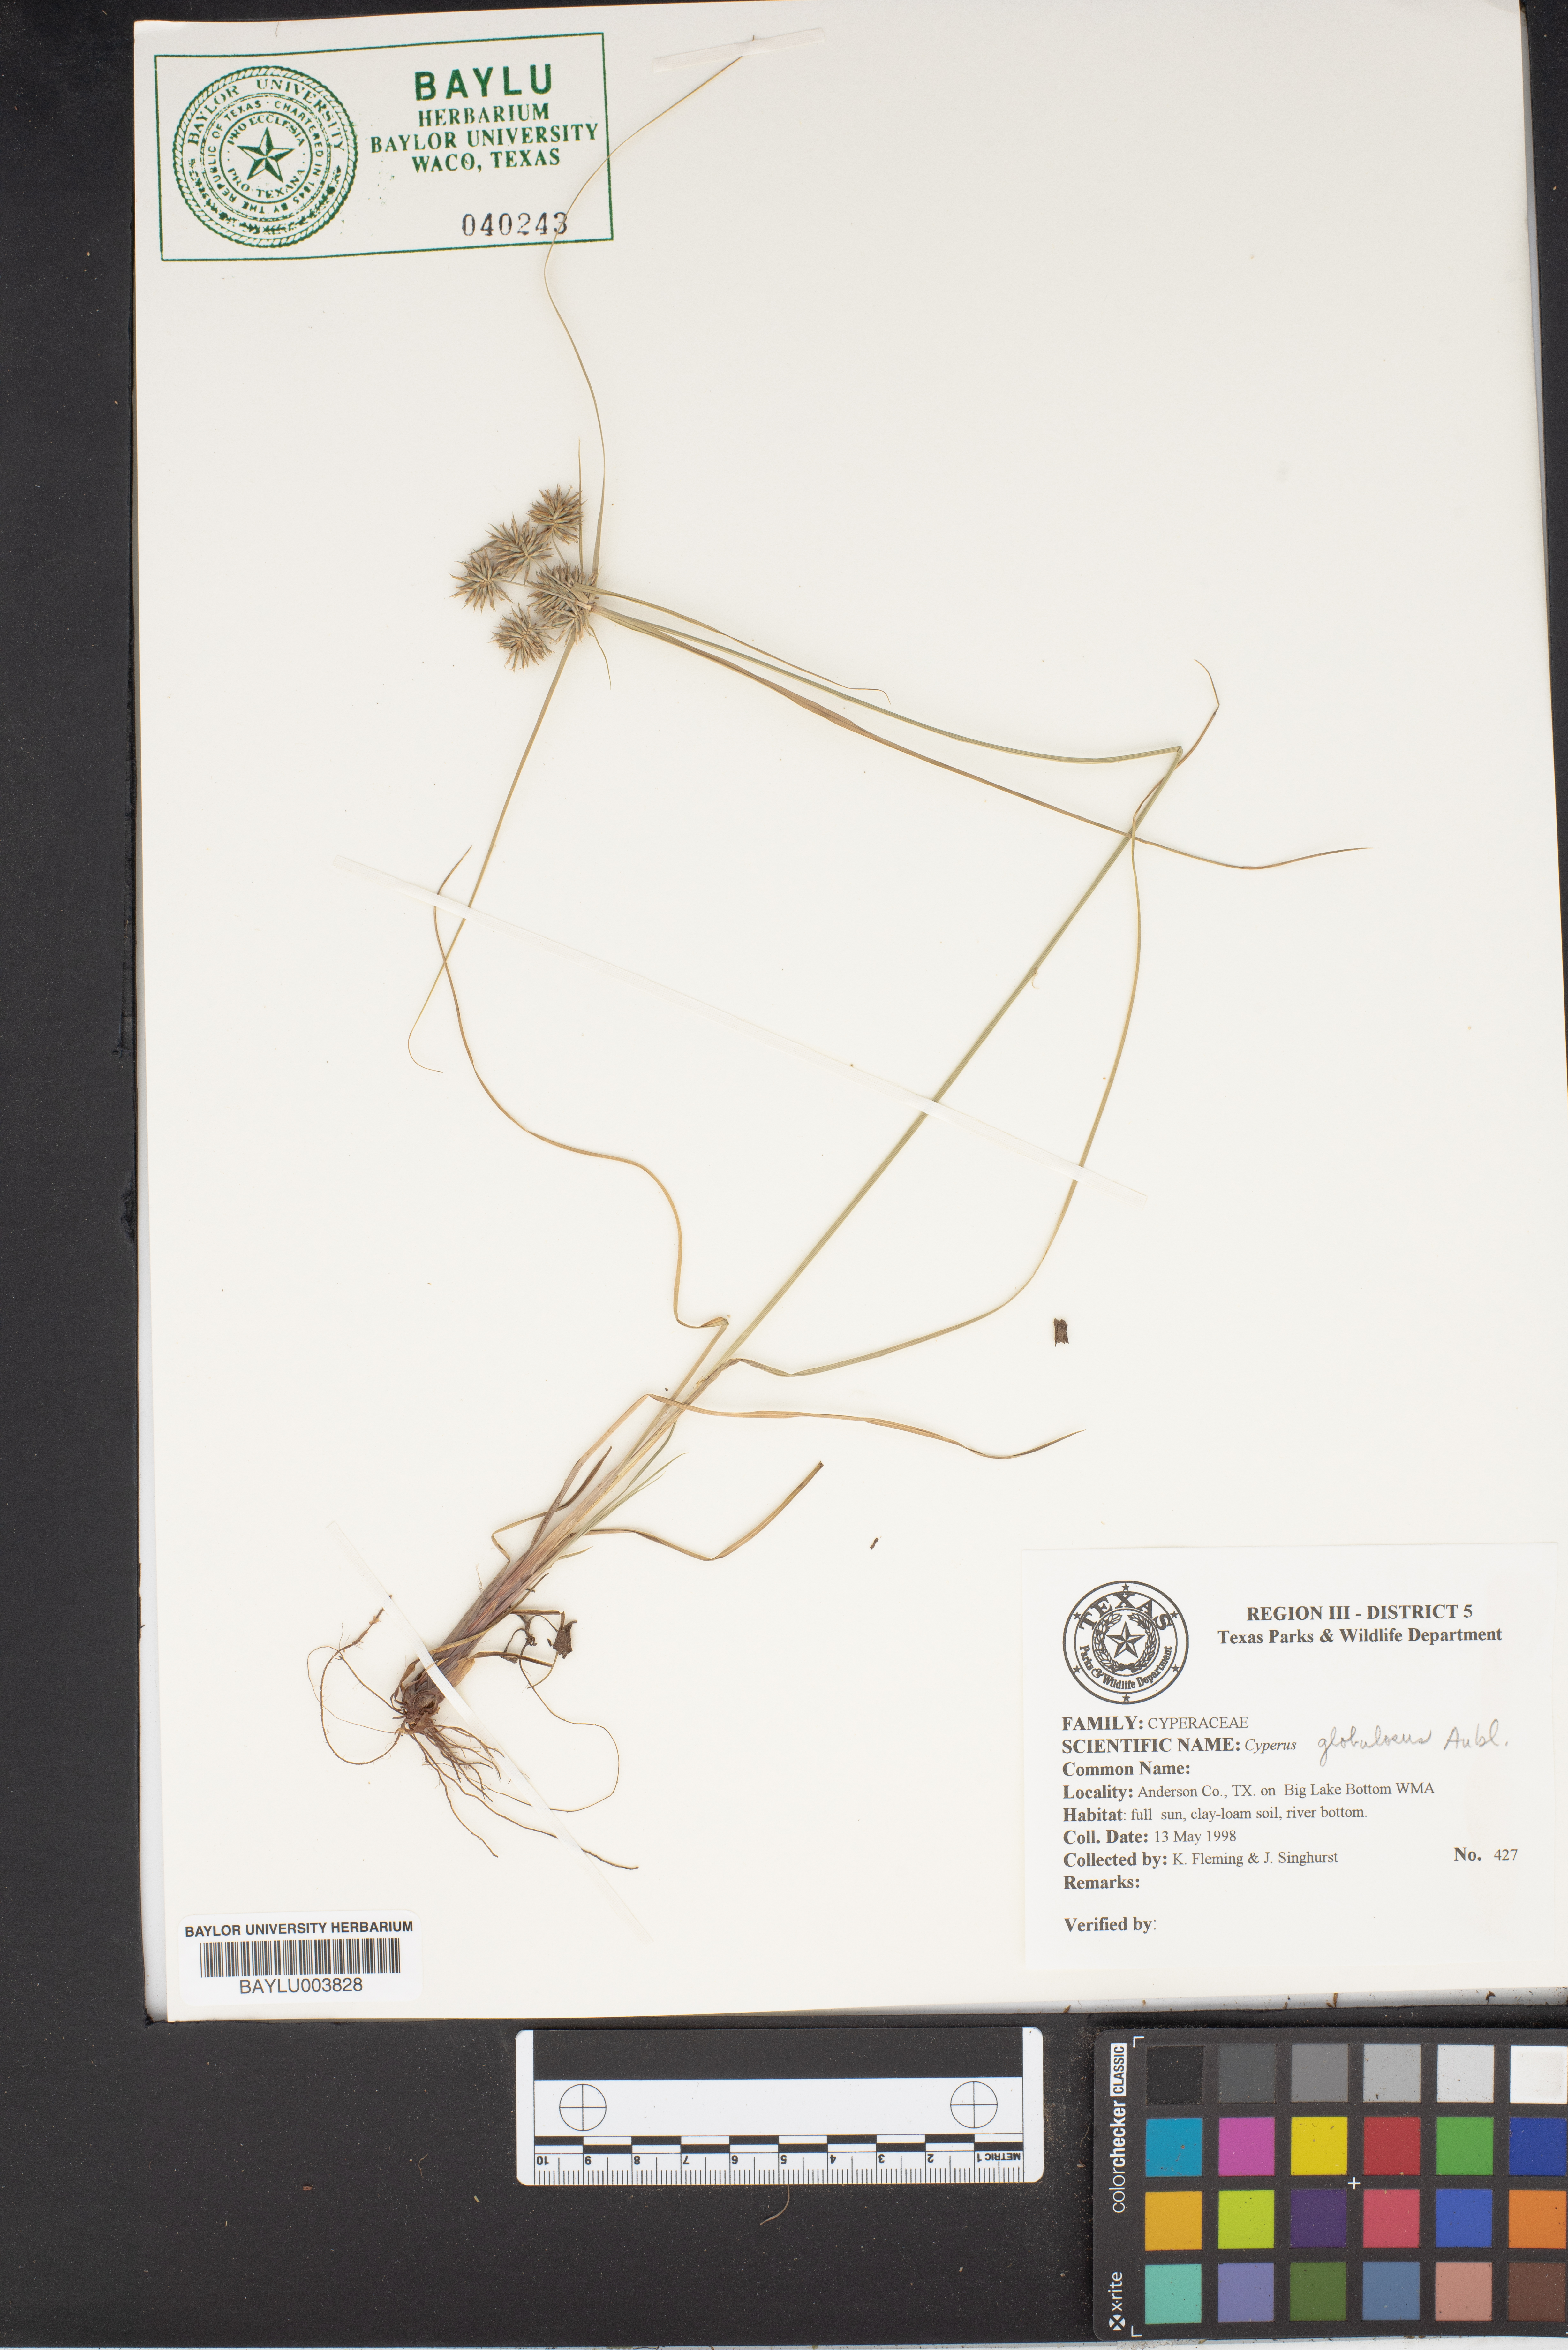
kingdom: Plantae
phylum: Tracheophyta
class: Liliopsida
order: Poales
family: Cyperaceae
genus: Cyperus
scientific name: Cyperus luzulae
